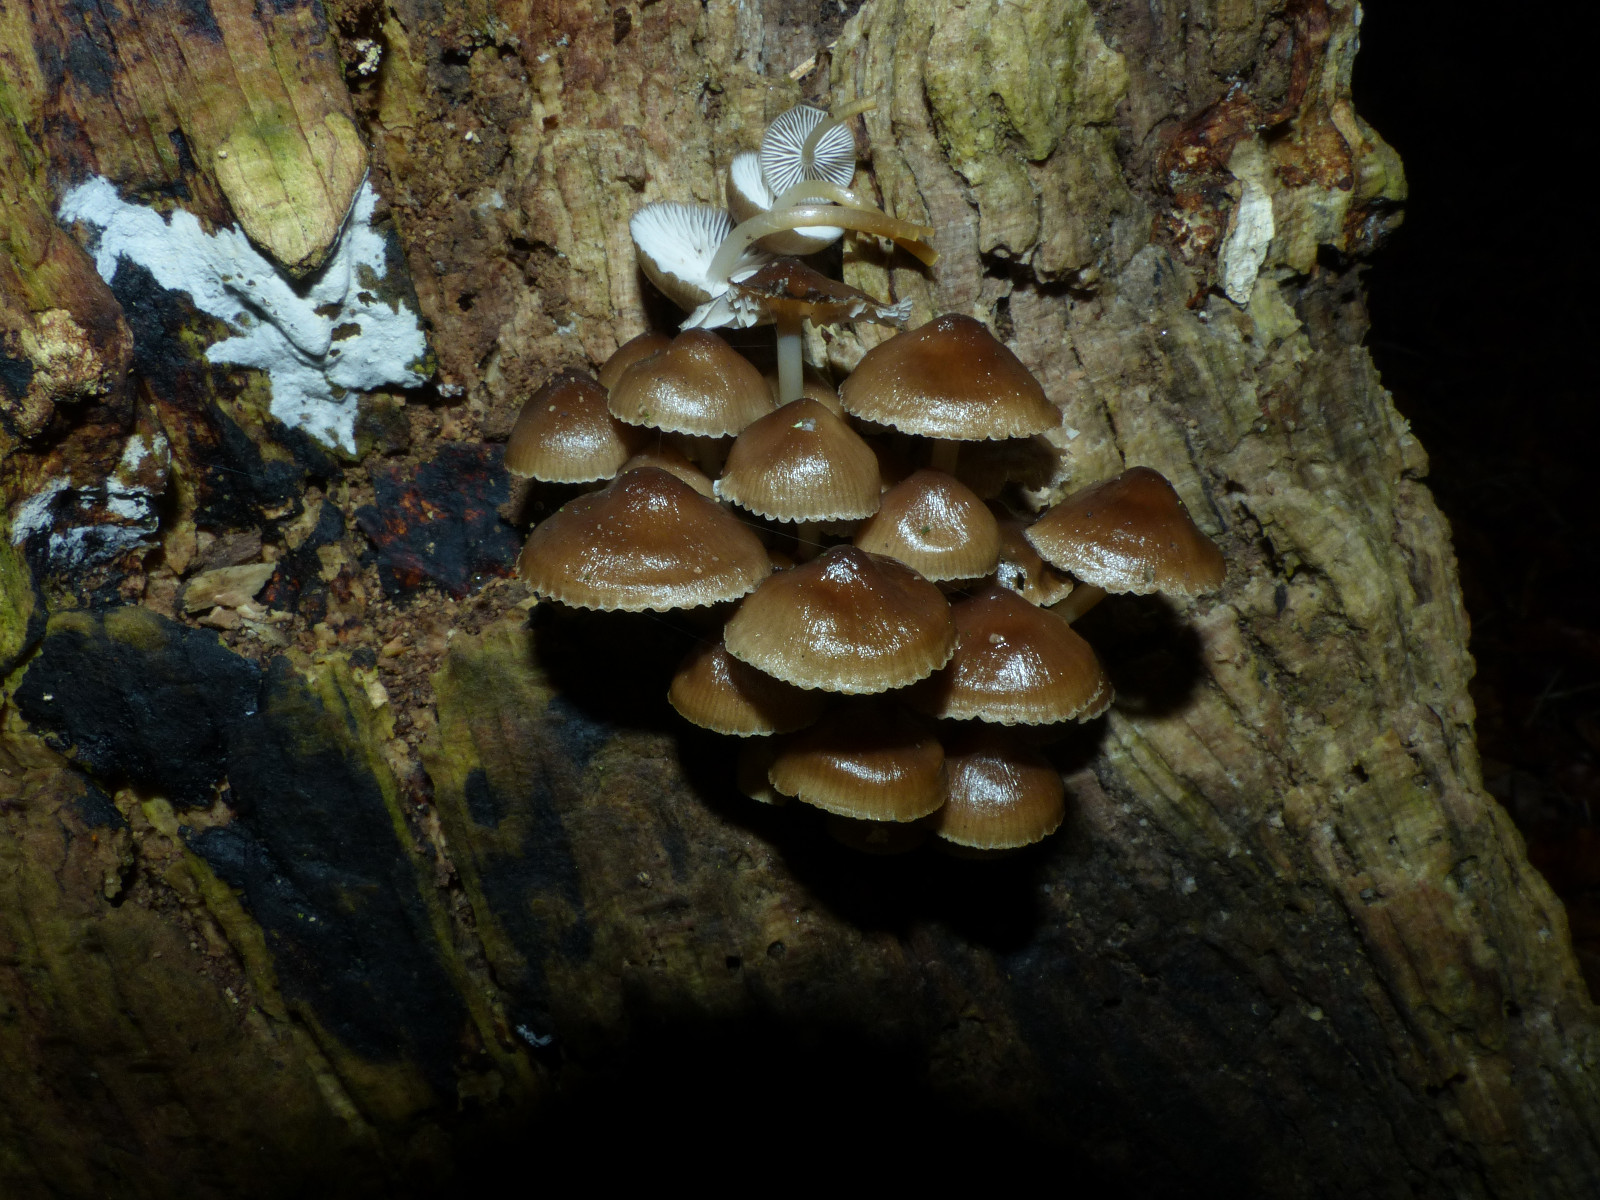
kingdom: Fungi
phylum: Basidiomycota
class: Agaricomycetes
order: Agaricales
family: Mycenaceae
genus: Mycena
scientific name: Mycena tintinnabulum
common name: vinter-huesvamp
